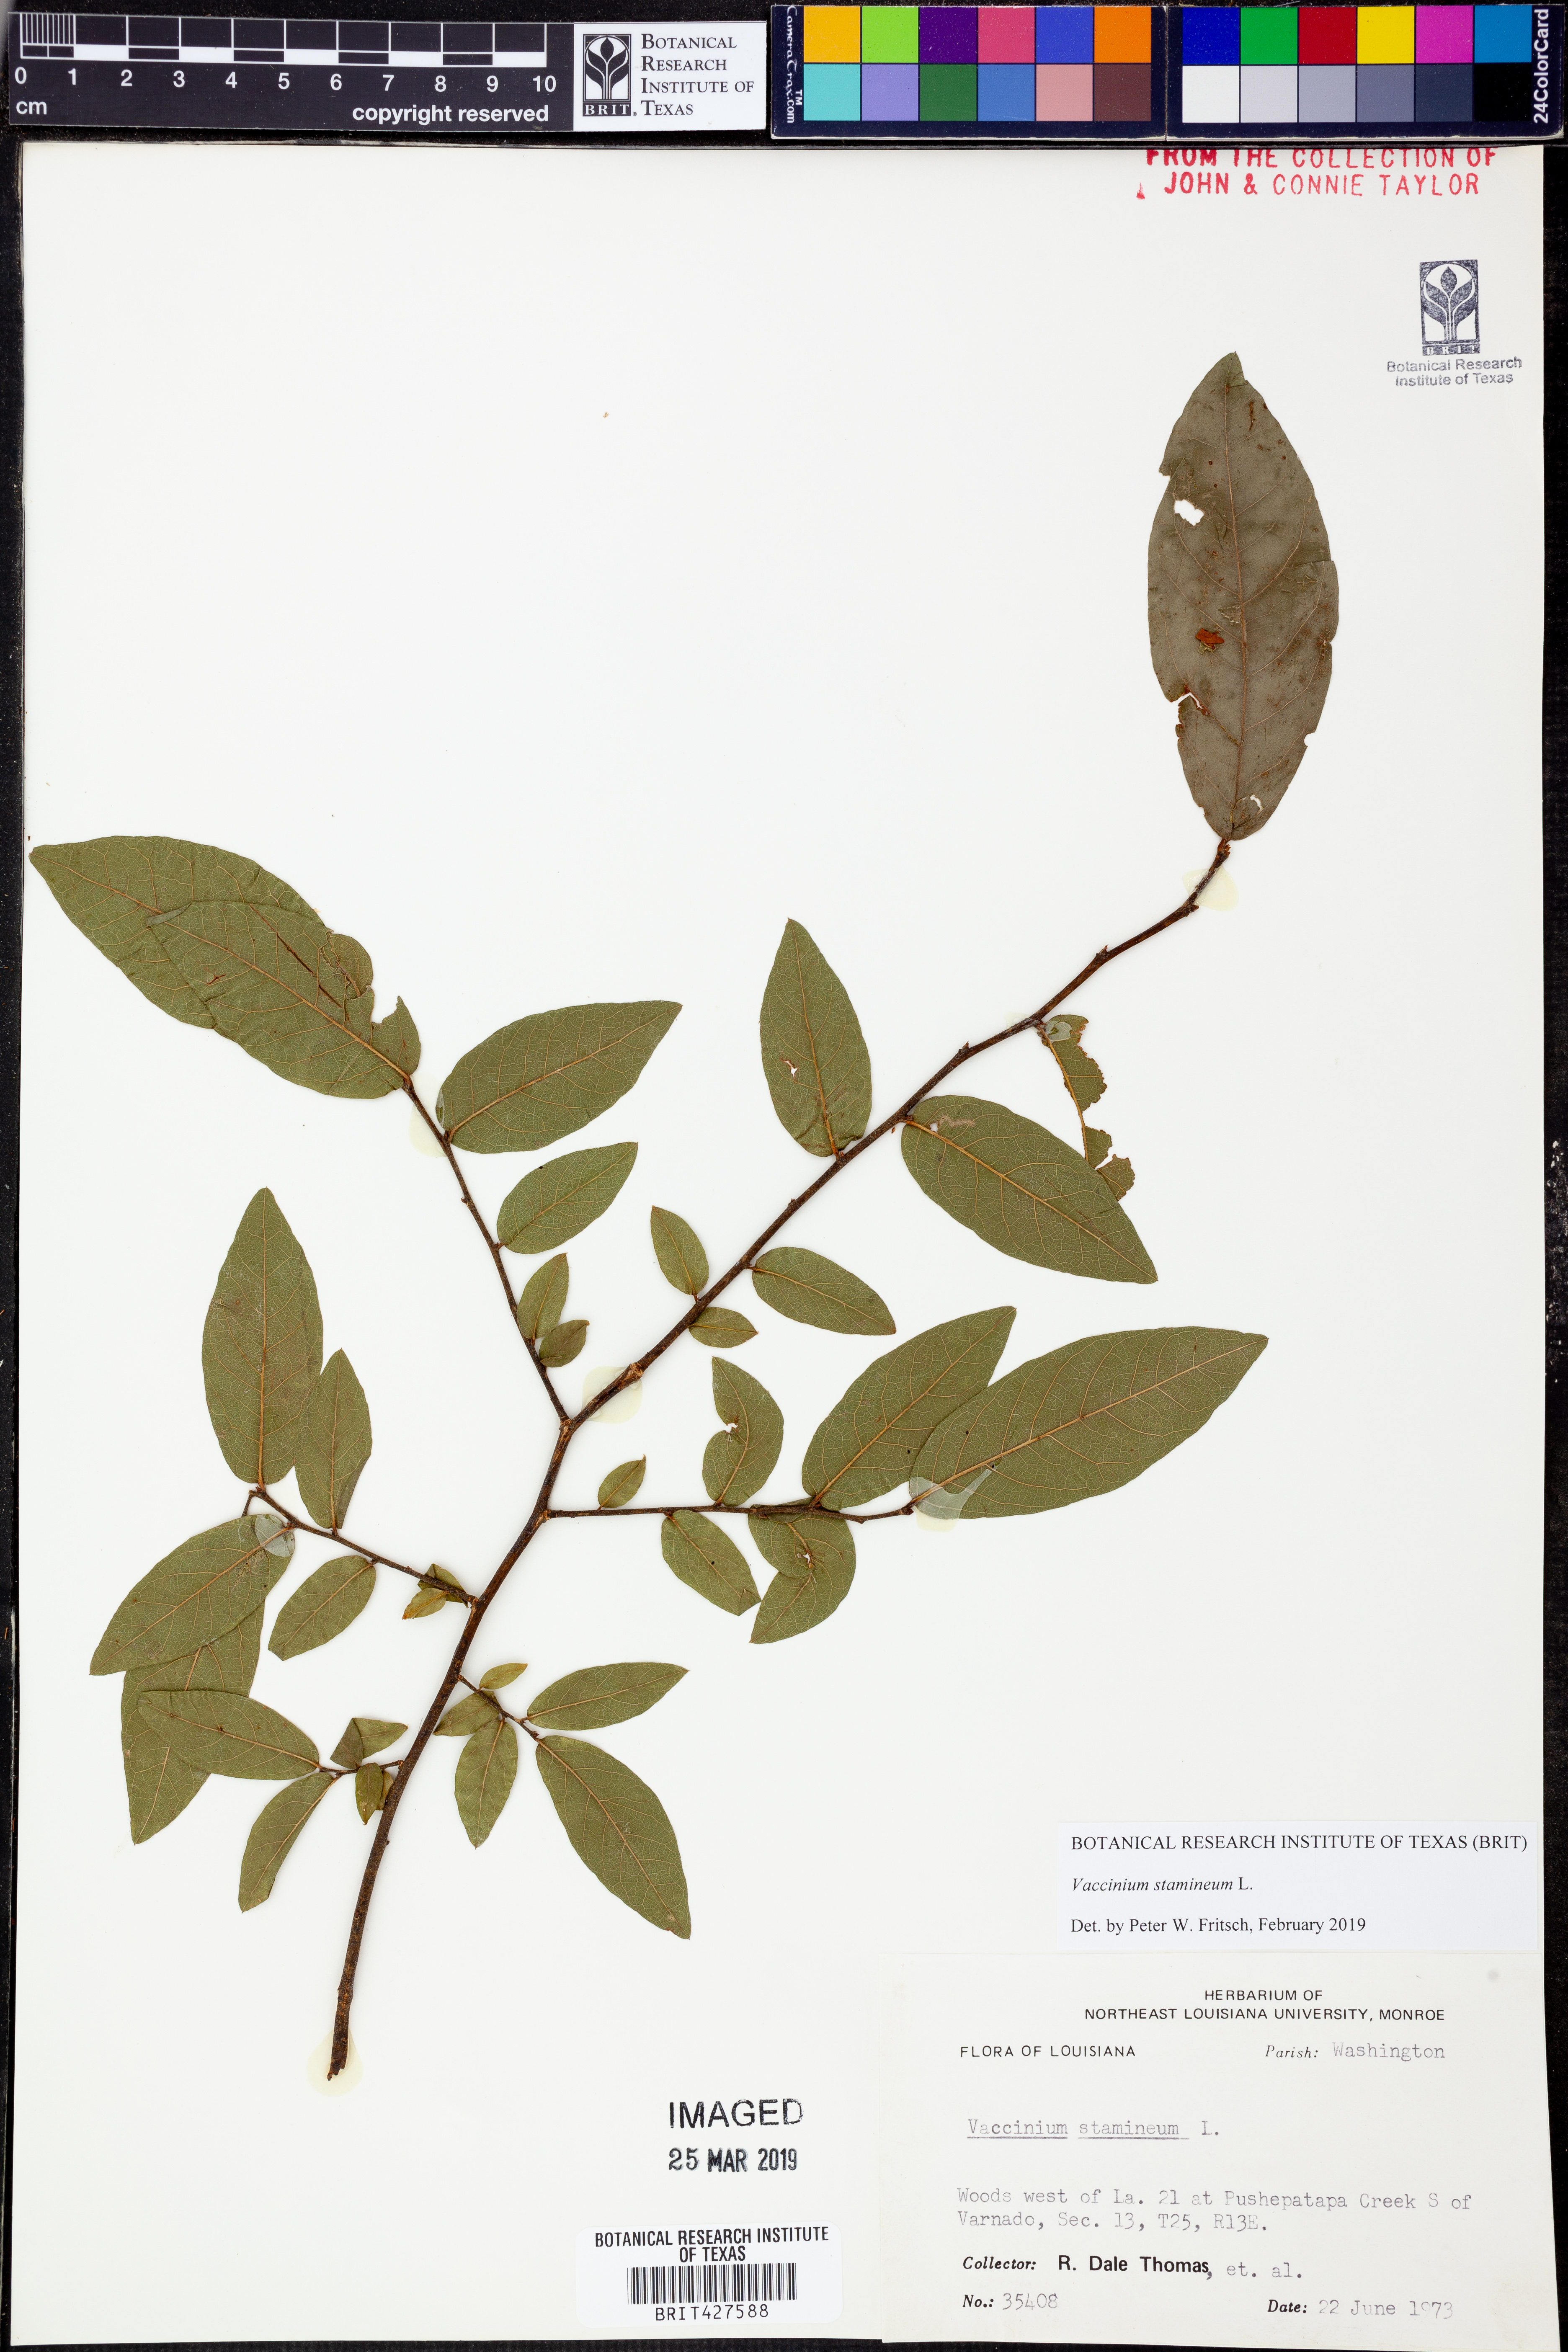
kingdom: Plantae
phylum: Tracheophyta
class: Magnoliopsida
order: Ericales
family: Ericaceae
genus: Vaccinium
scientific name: Vaccinium stamineum
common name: Deerberry
